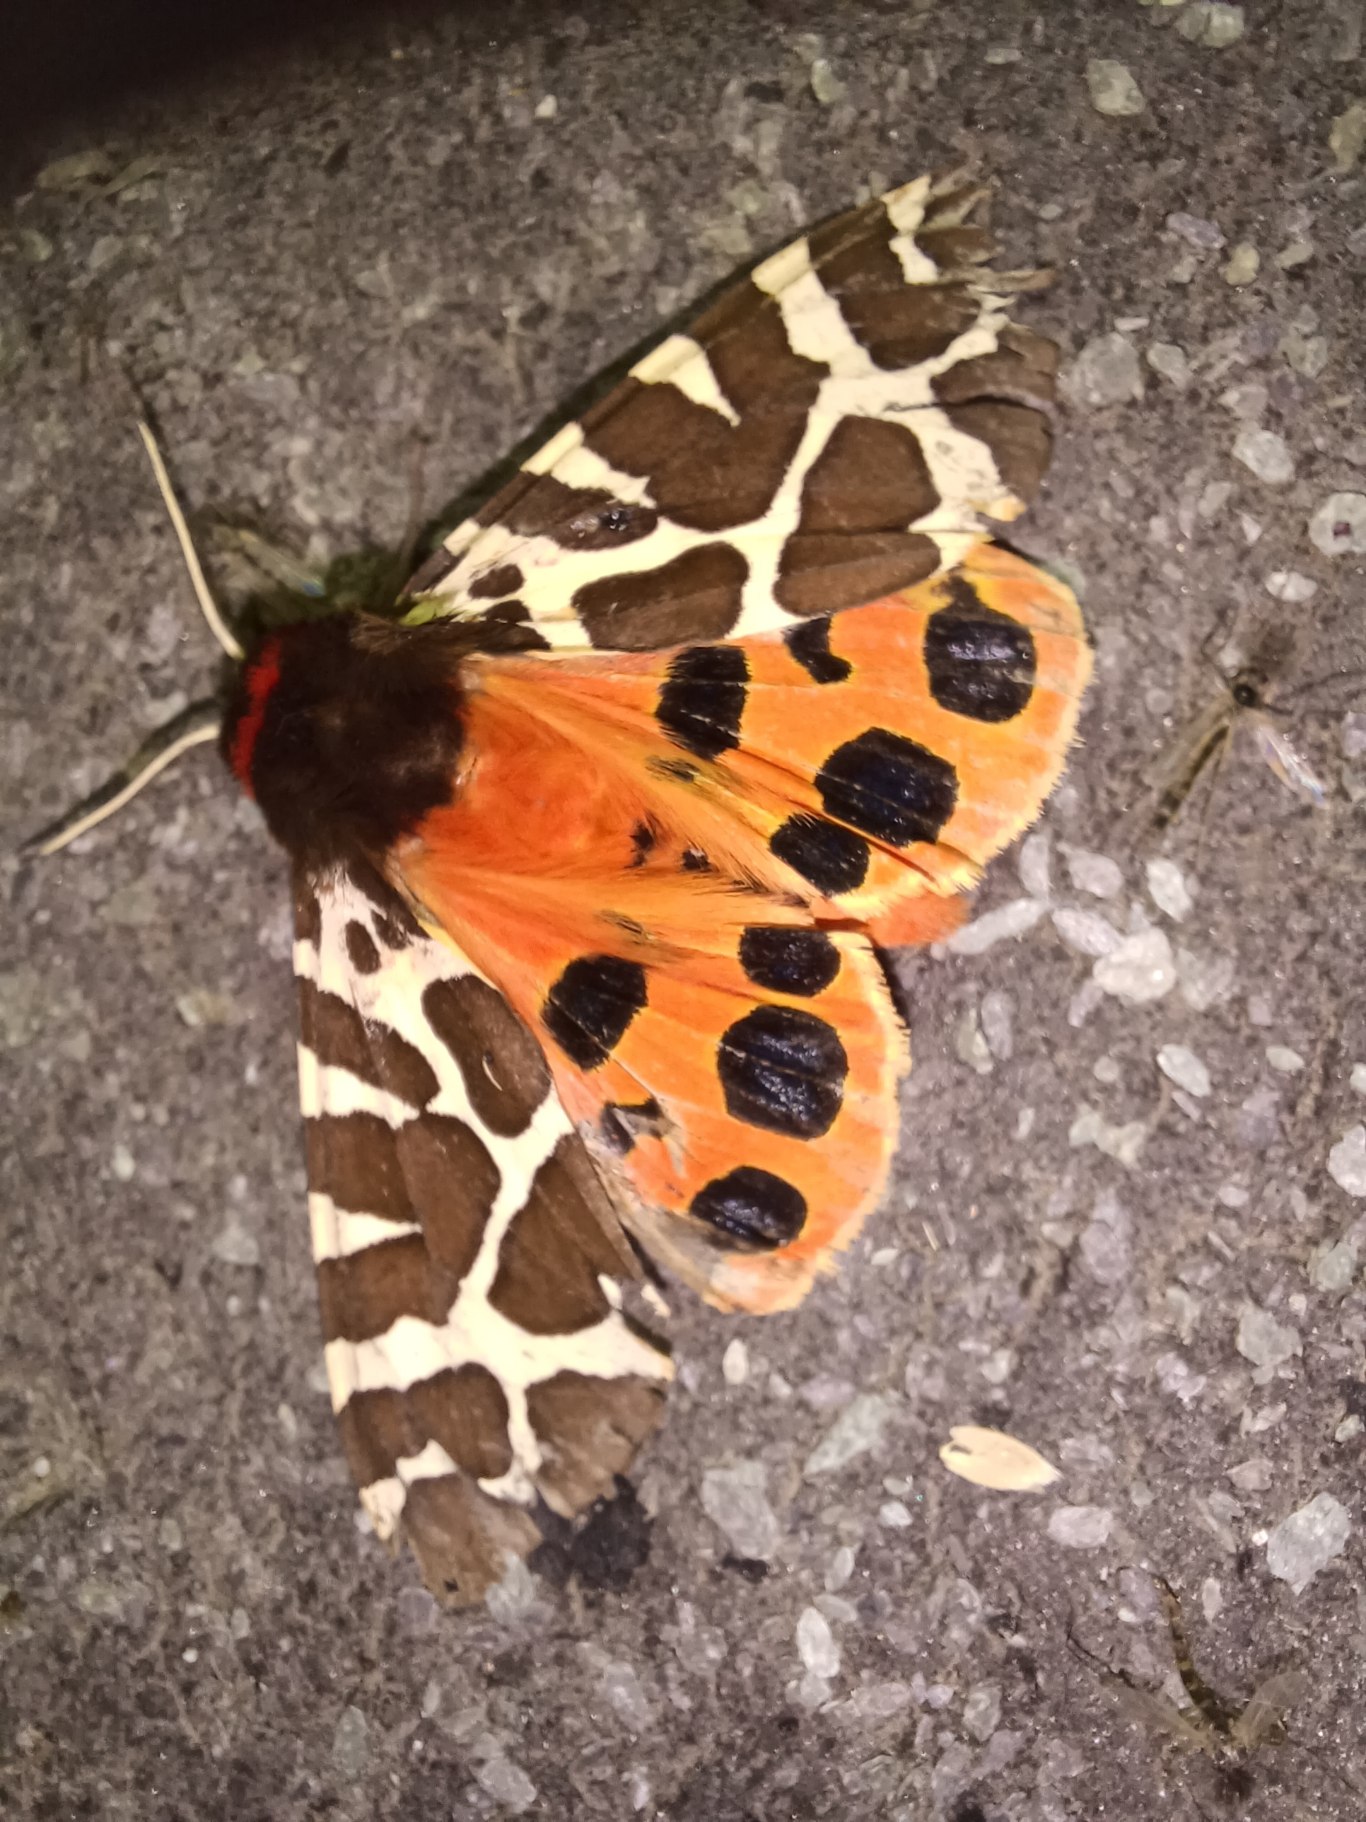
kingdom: Animalia
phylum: Arthropoda
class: Insecta
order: Lepidoptera
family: Erebidae
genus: Arctia
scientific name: Arctia caja
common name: Brun bjørn
